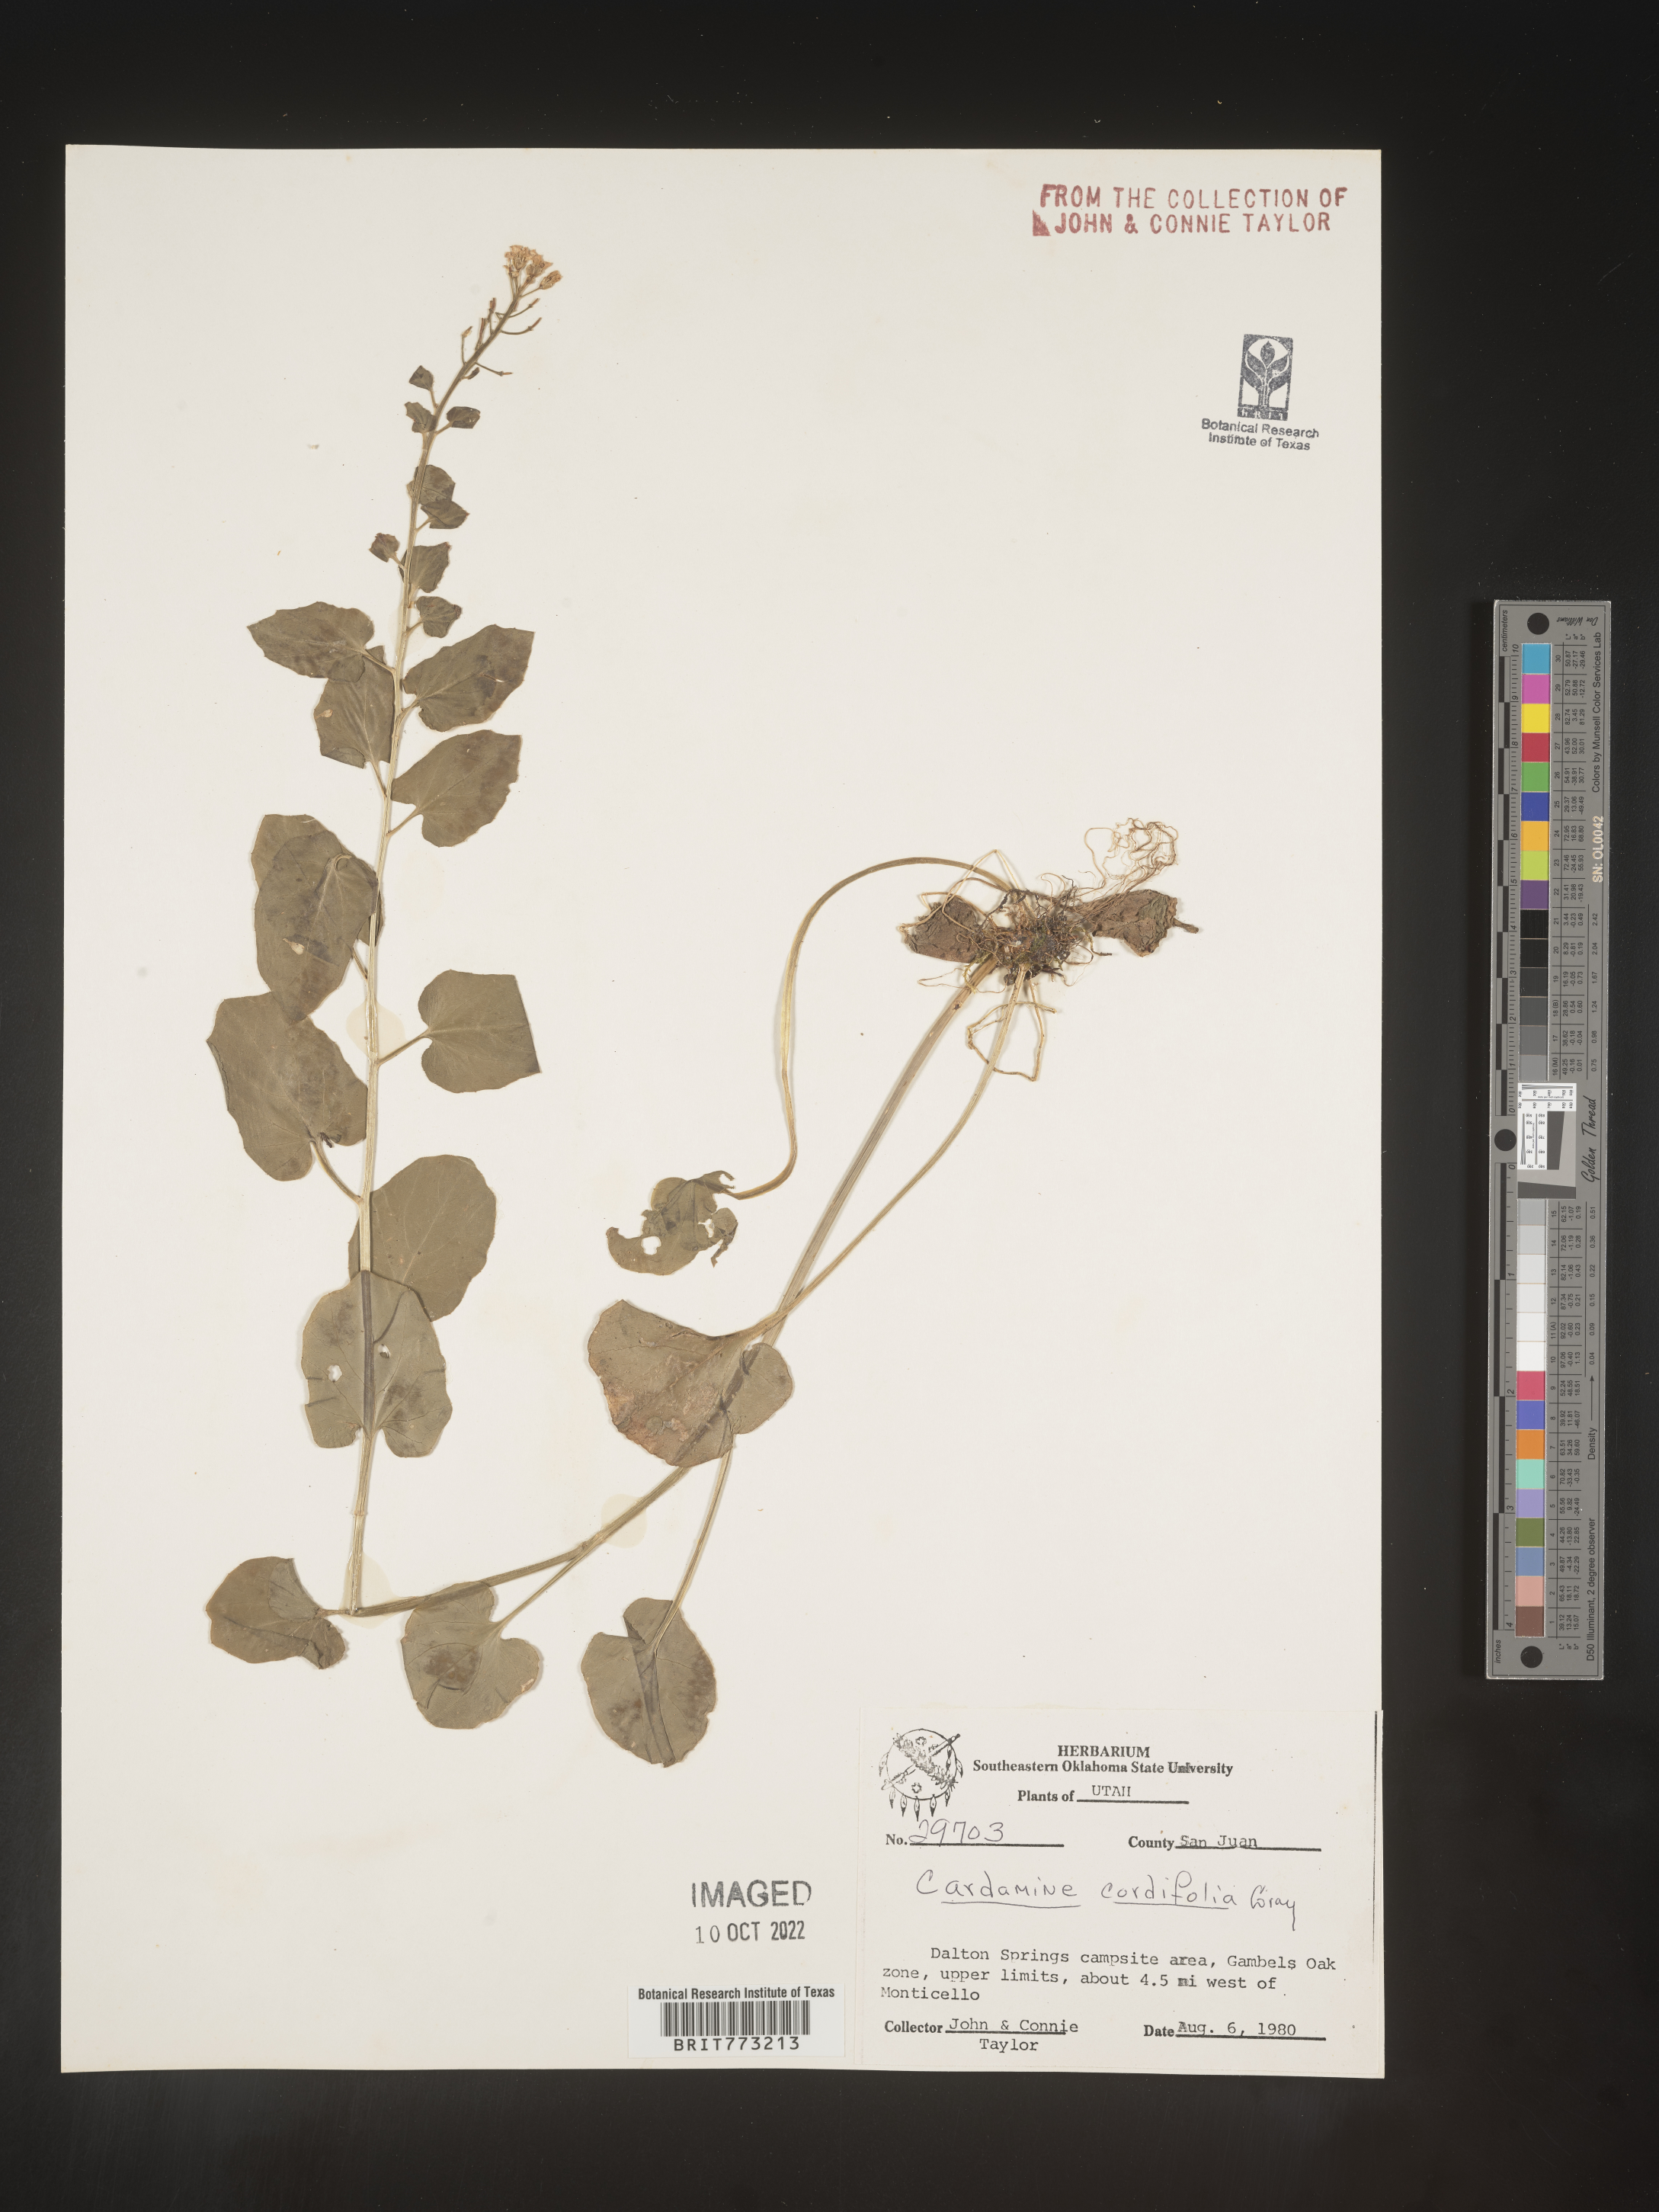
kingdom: Plantae
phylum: Tracheophyta
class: Magnoliopsida
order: Brassicales
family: Brassicaceae
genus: Cardamine
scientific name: Cardamine
